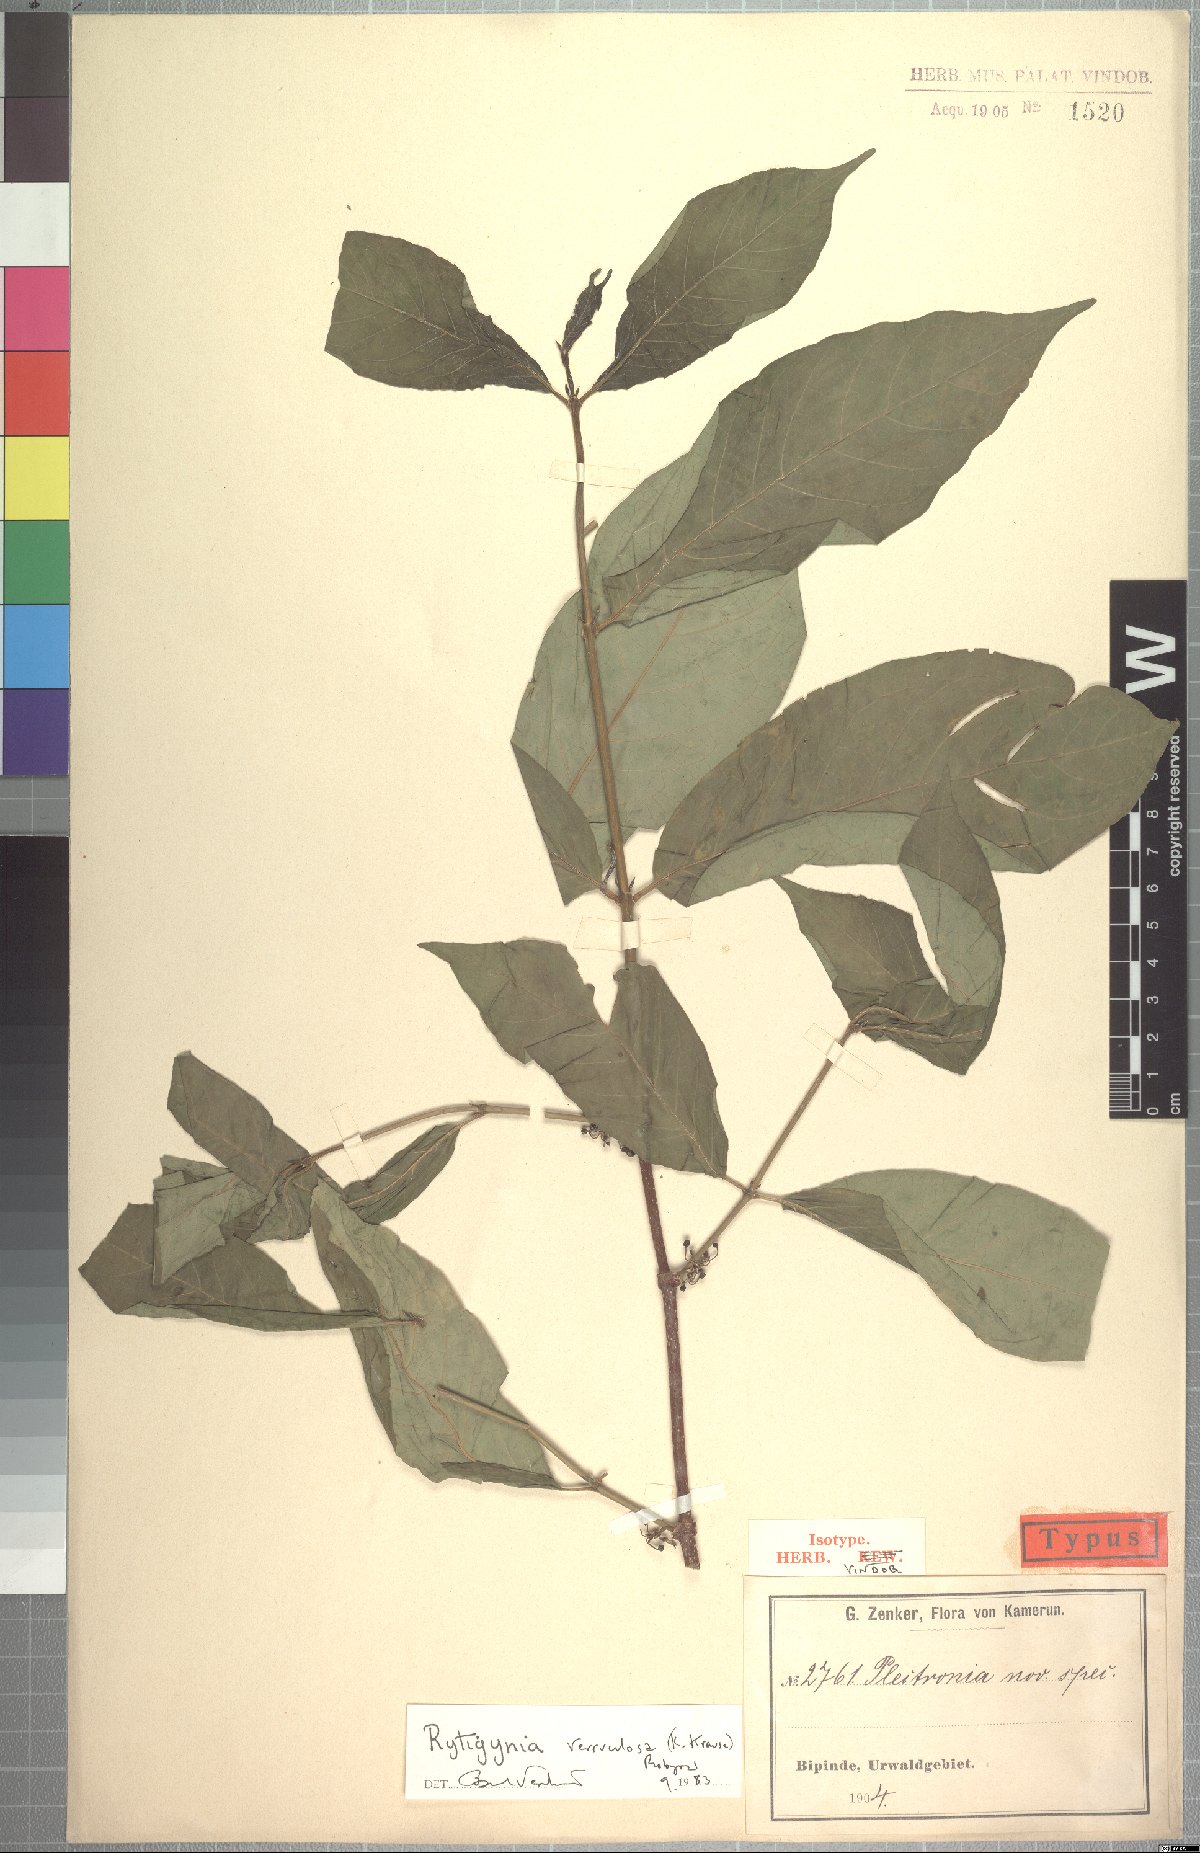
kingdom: Plantae
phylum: Tracheophyta
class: Magnoliopsida
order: Gentianales
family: Rubiaceae
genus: Rytigynia
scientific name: Rytigynia verruculosa
